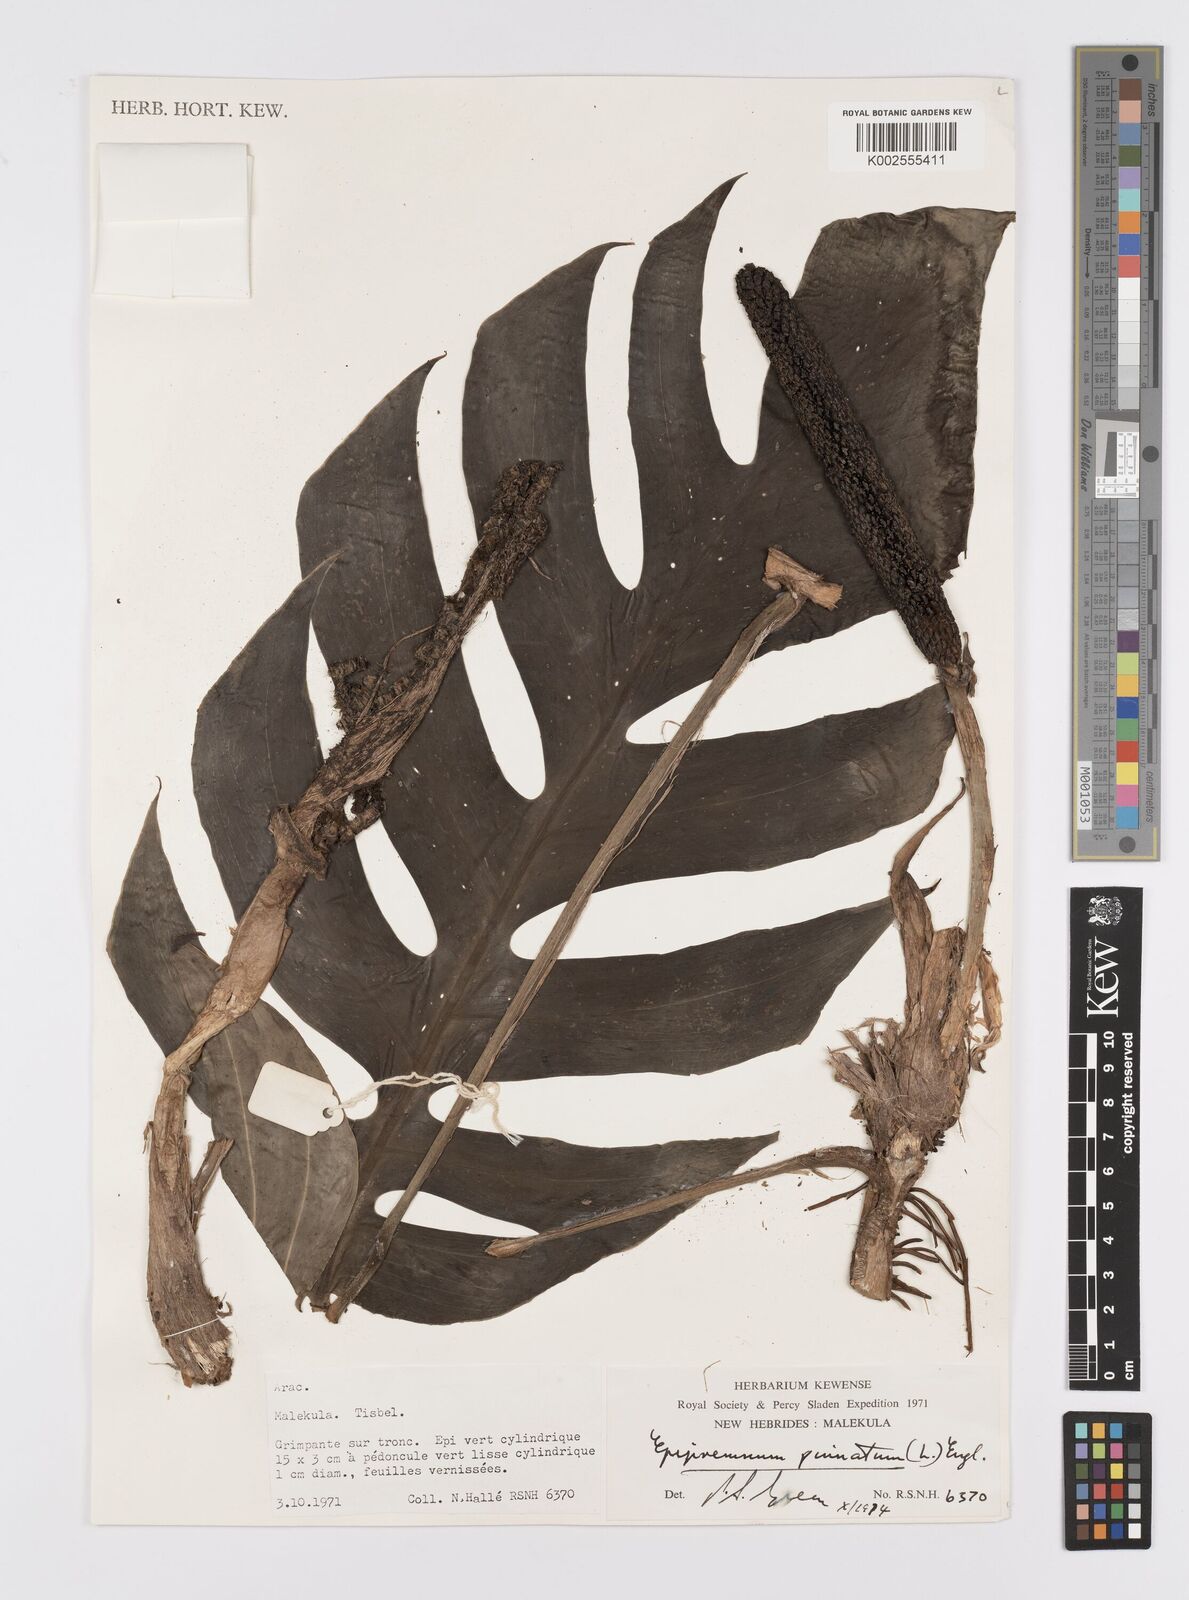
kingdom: Plantae
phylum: Tracheophyta
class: Liliopsida
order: Alismatales
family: Araceae
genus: Epipremnum
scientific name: Epipremnum pinnatum
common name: Centipede tongavine
